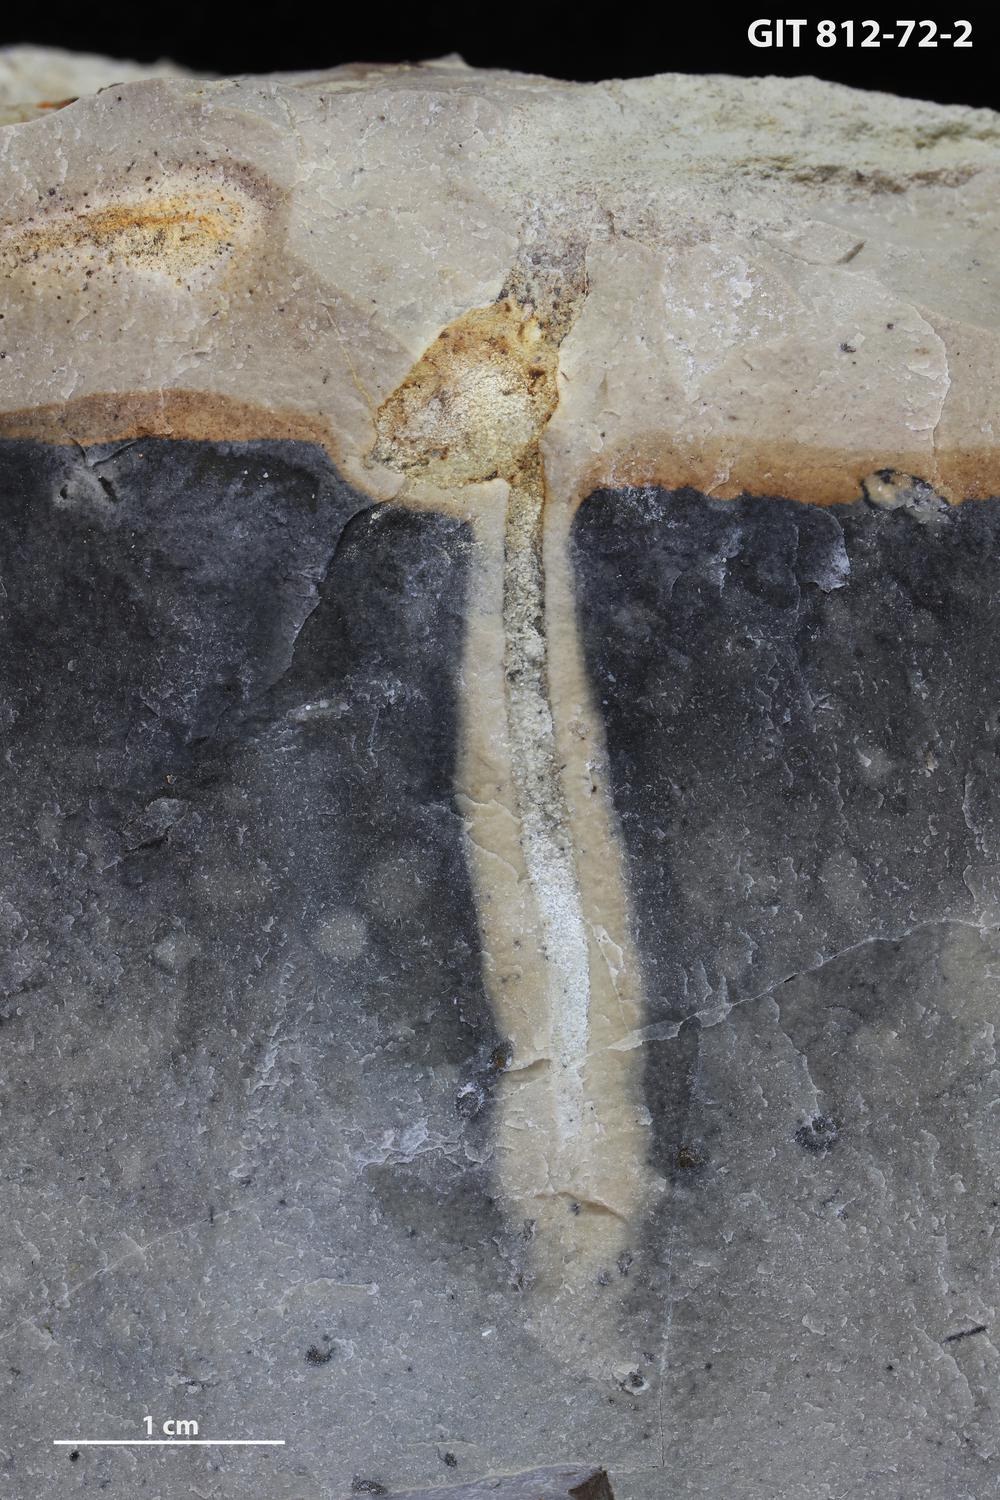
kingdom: Animalia
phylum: Sipuncula
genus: Trypanites
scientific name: Trypanites
